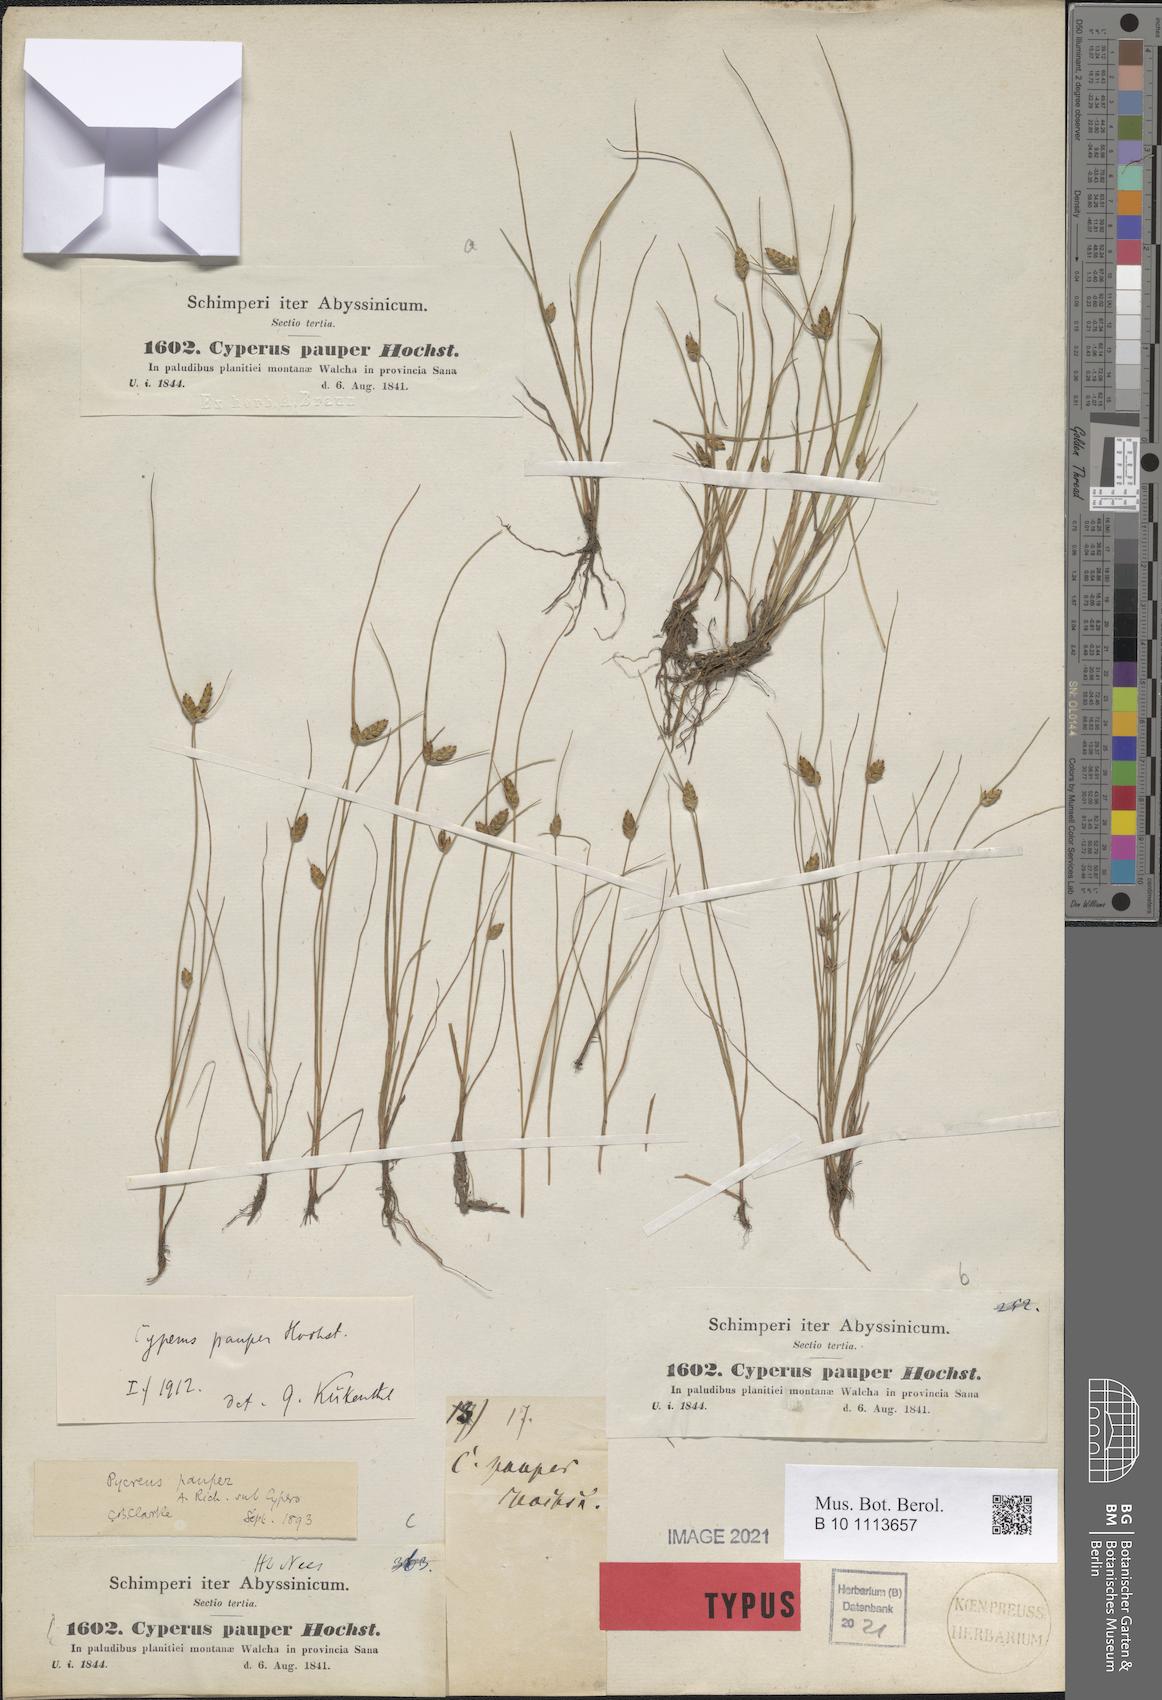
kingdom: Plantae
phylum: Tracheophyta
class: Liliopsida
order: Poales
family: Cyperaceae
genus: Cyperus
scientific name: Cyperus pauper
